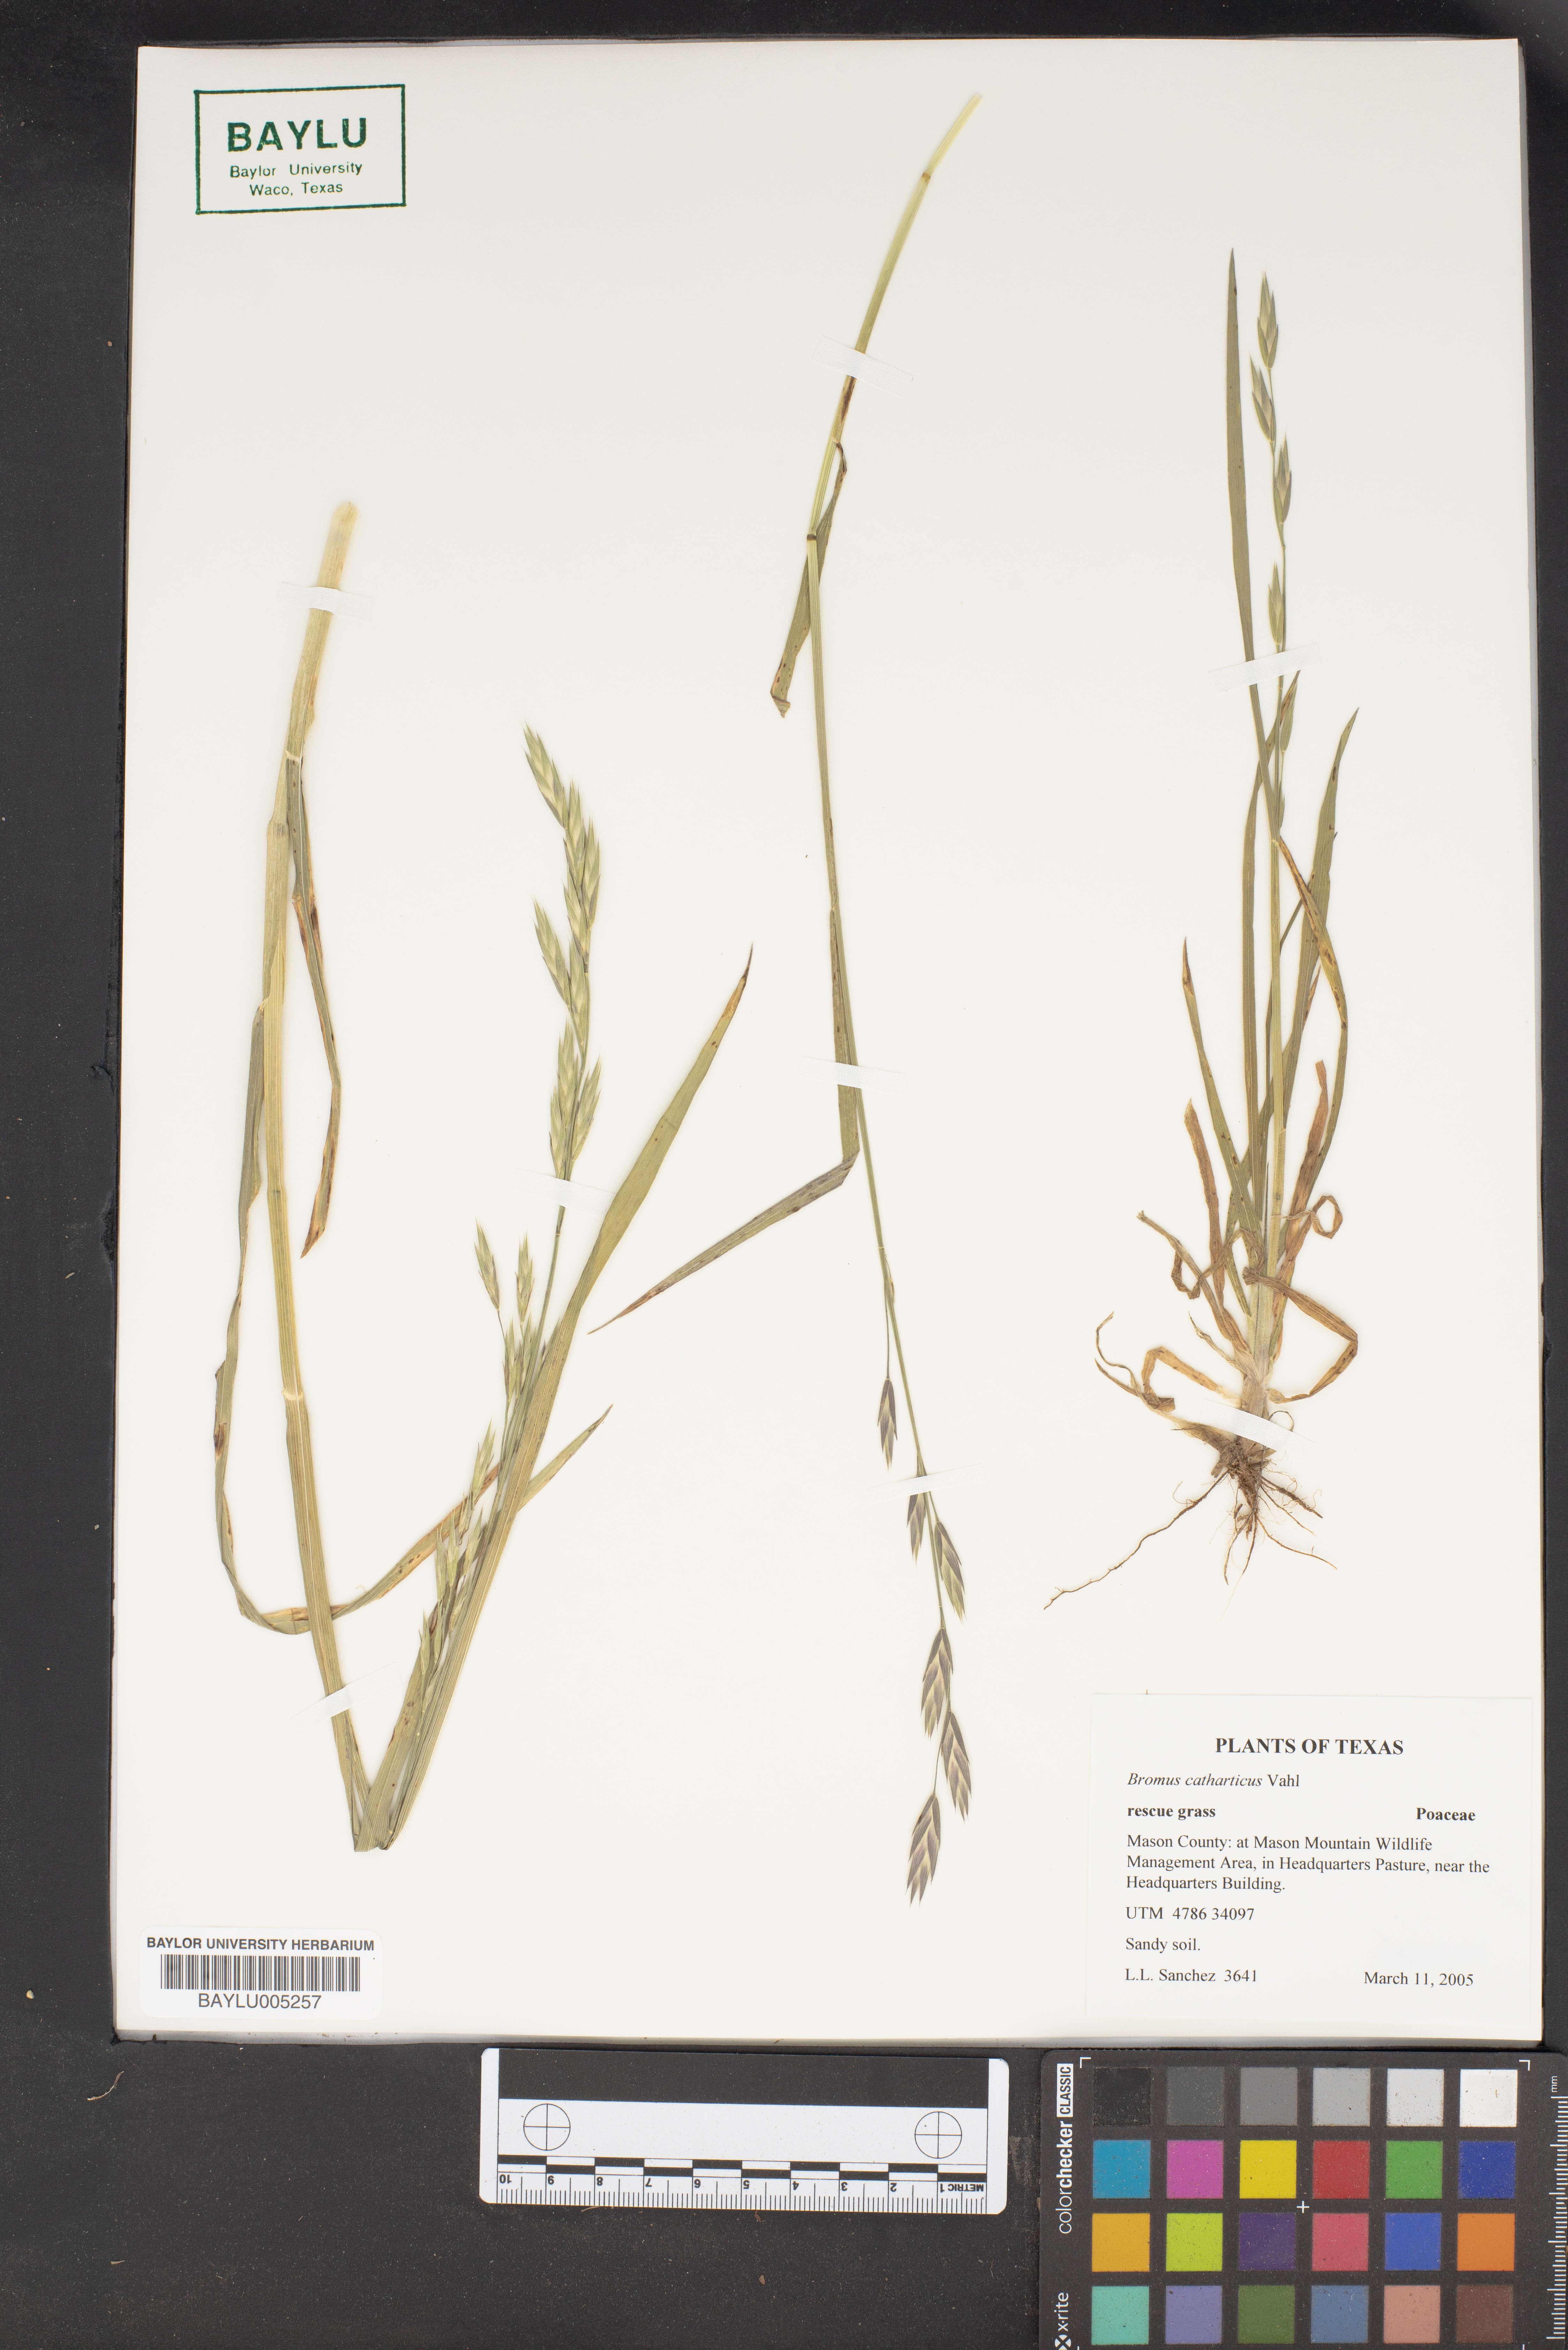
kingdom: Plantae
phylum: Tracheophyta
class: Liliopsida
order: Poales
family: Poaceae
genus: Bromus
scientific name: Bromus catharticus
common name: Rescuegrass
